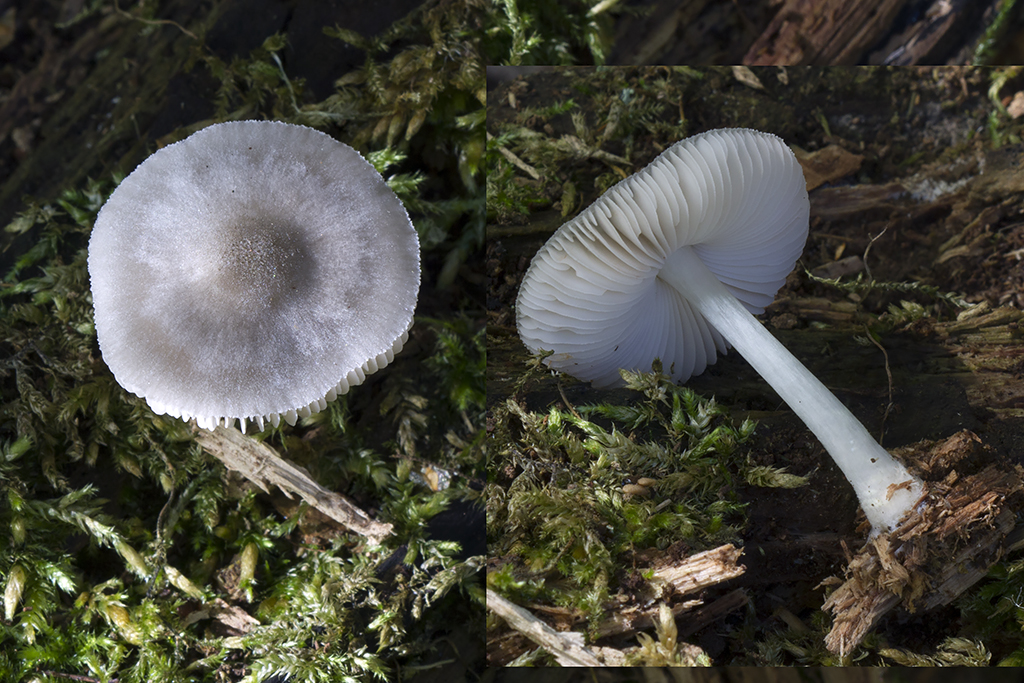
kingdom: Fungi
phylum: Basidiomycota
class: Agaricomycetes
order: Agaricales
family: Pluteaceae
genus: Pluteus
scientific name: Pluteus salicinus
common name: stiv skærmhat
